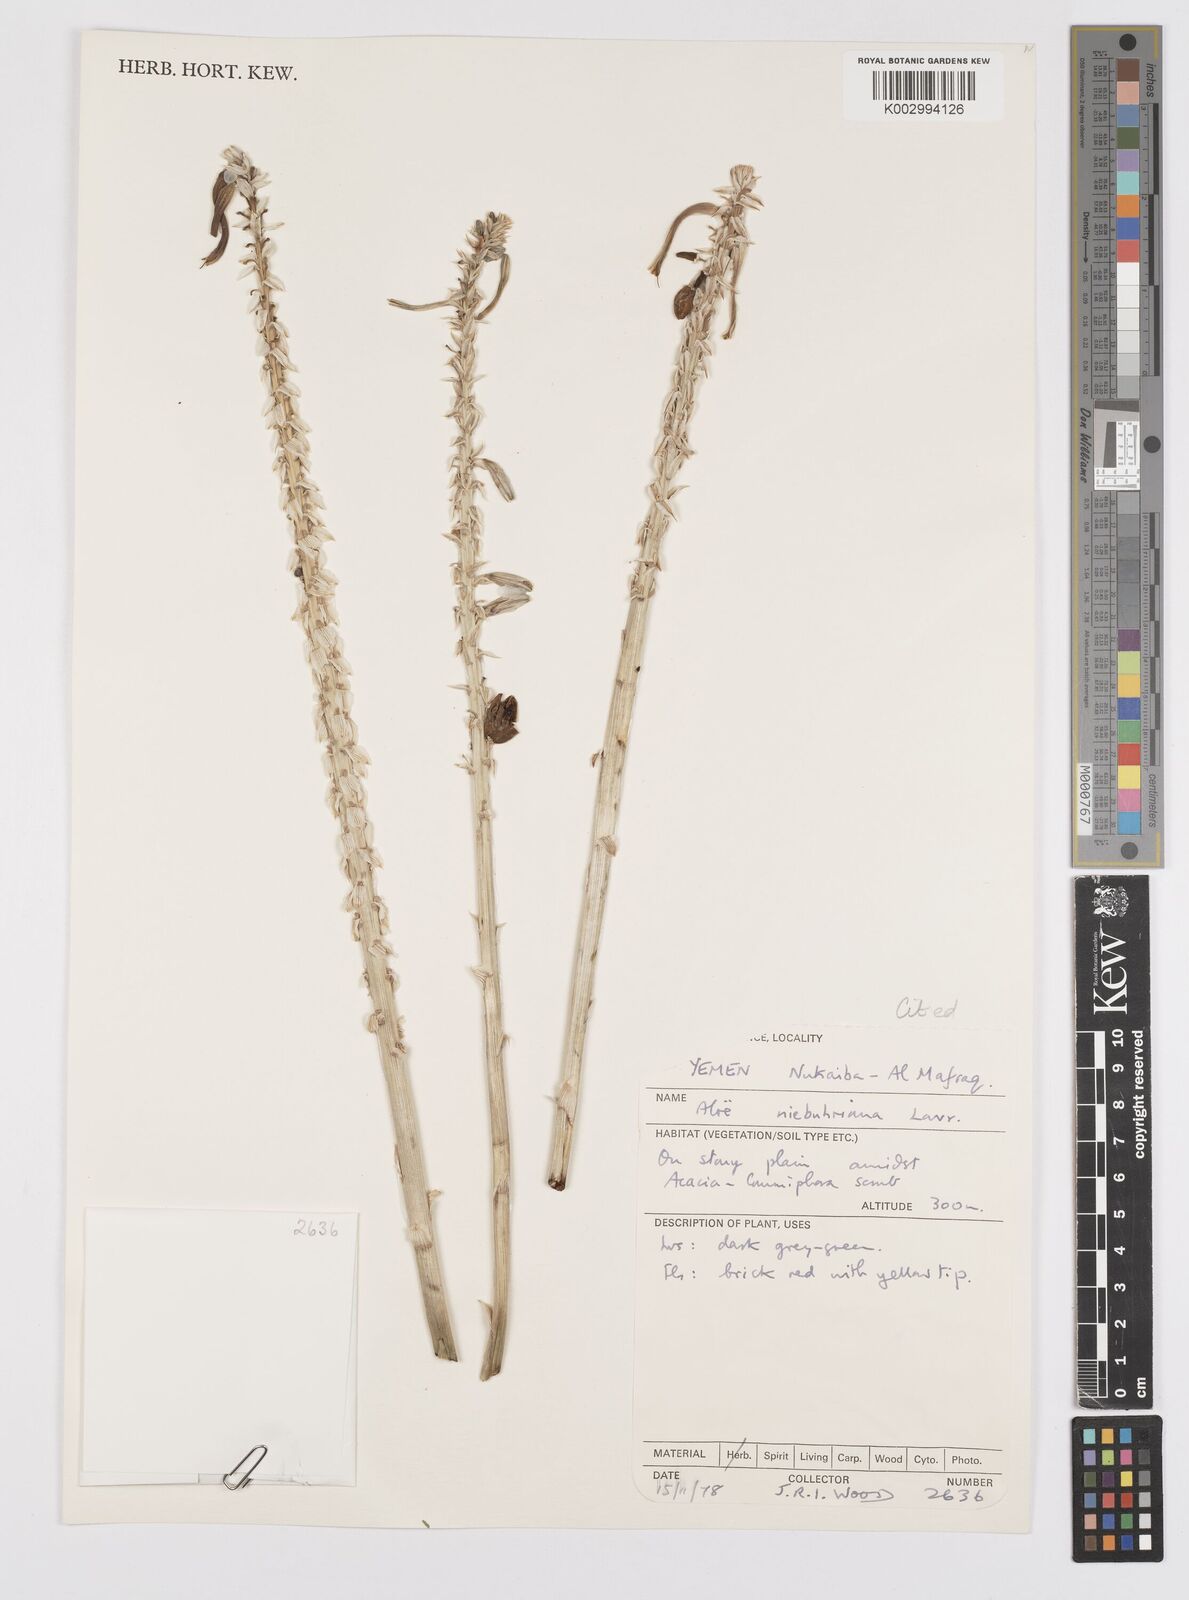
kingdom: Plantae
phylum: Tracheophyta
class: Liliopsida
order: Asparagales
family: Asphodelaceae
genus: Aloe
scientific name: Aloe niebuhriana
